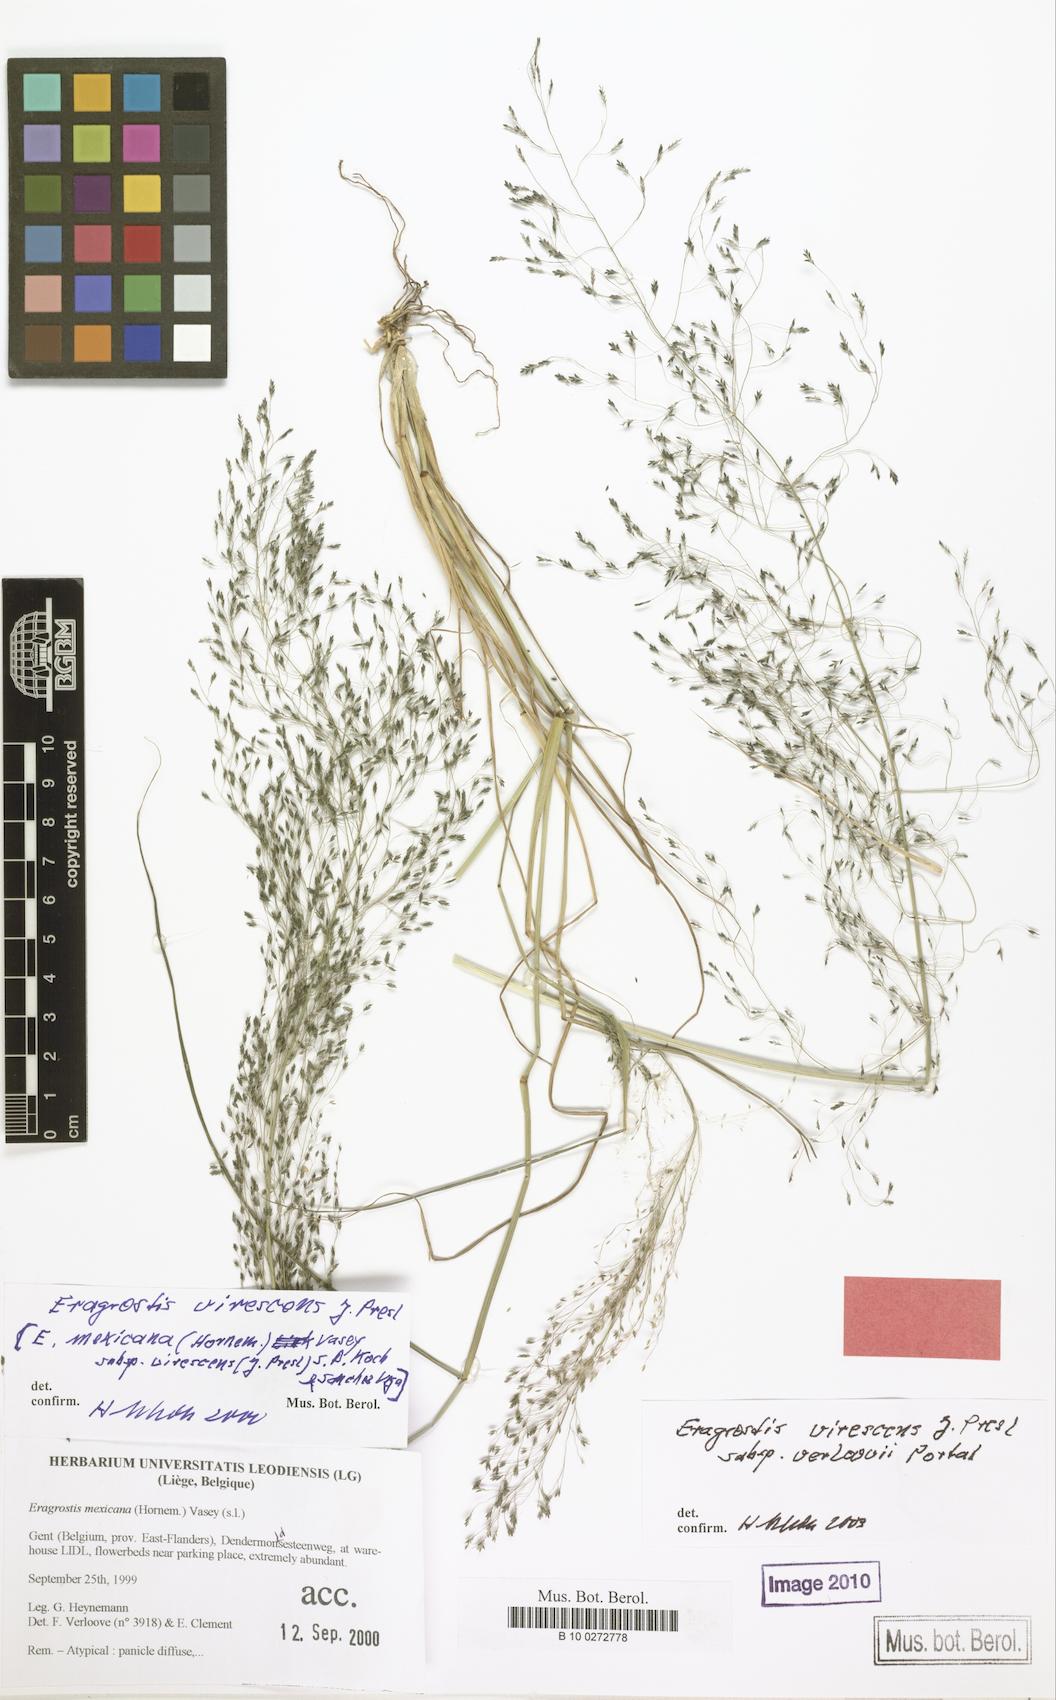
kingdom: Plantae
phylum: Tracheophyta
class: Liliopsida
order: Poales
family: Poaceae
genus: Eragrostis
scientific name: Eragrostis mexicana
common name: Mexican love grass
